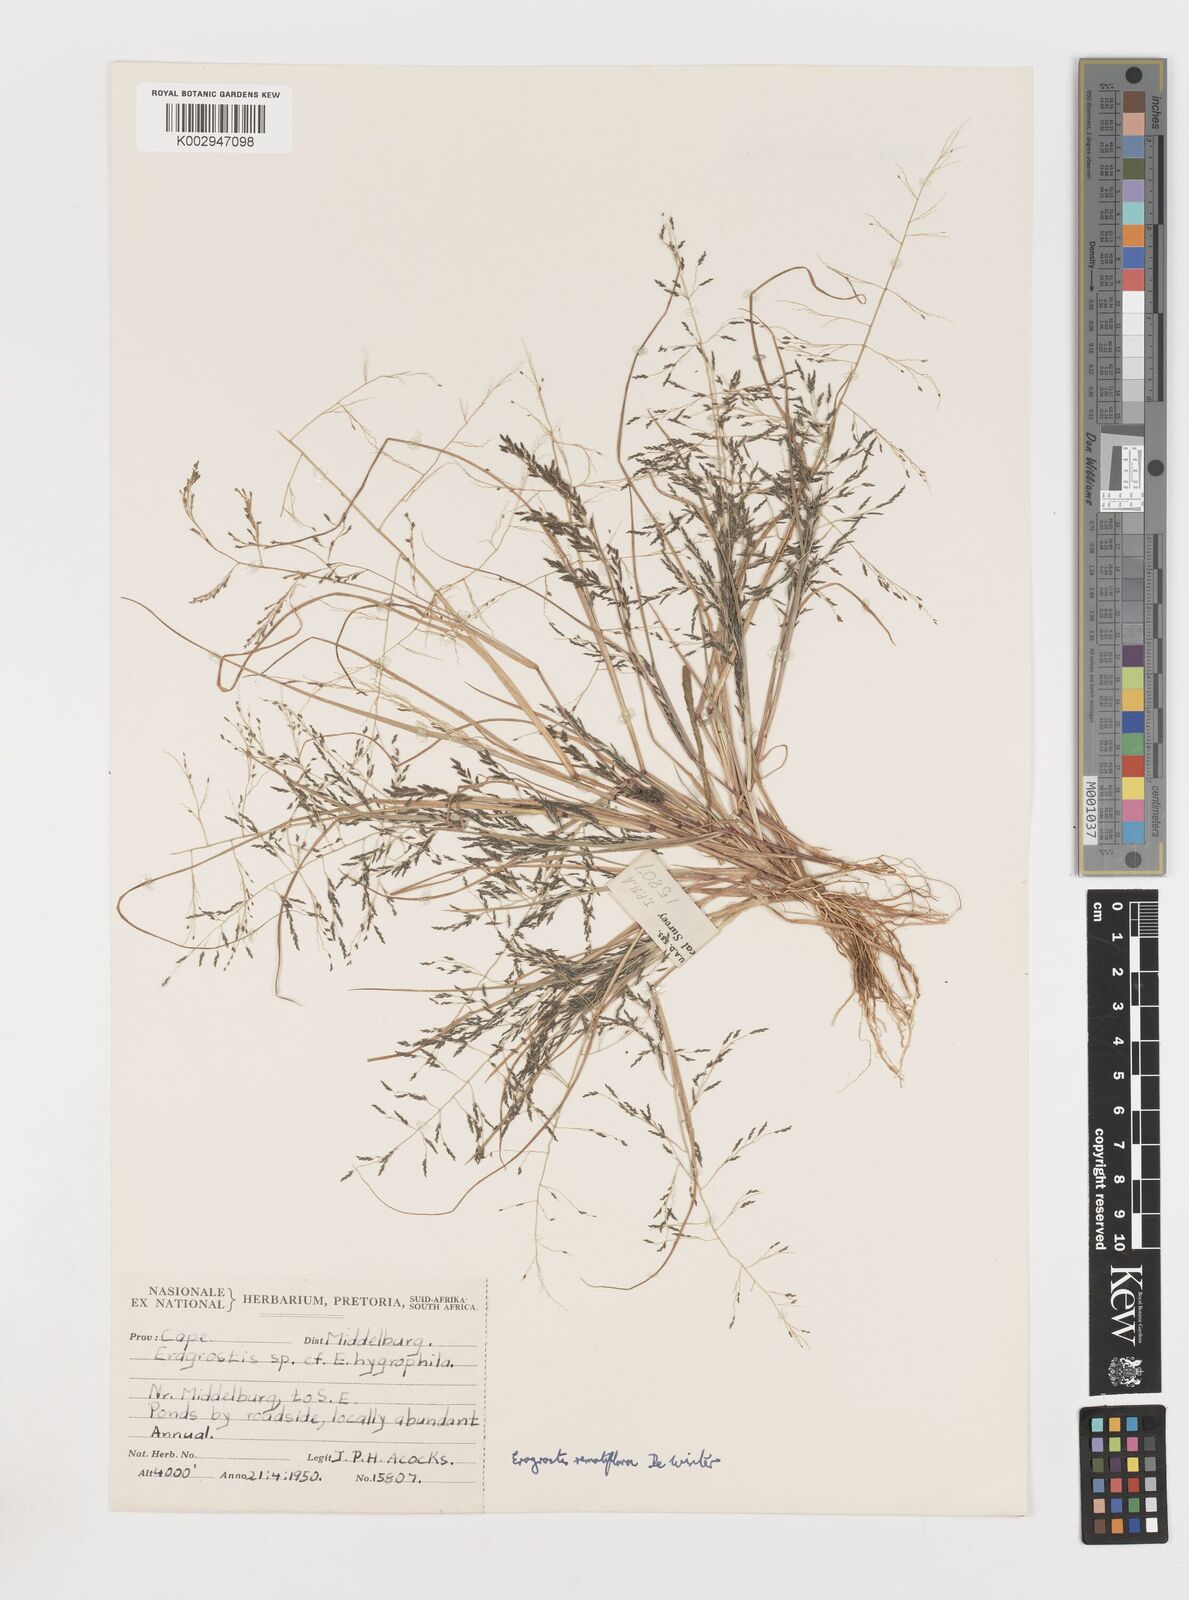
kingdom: Plantae
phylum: Tracheophyta
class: Liliopsida
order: Poales
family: Poaceae
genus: Eragrostis
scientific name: Eragrostis remotiflora
